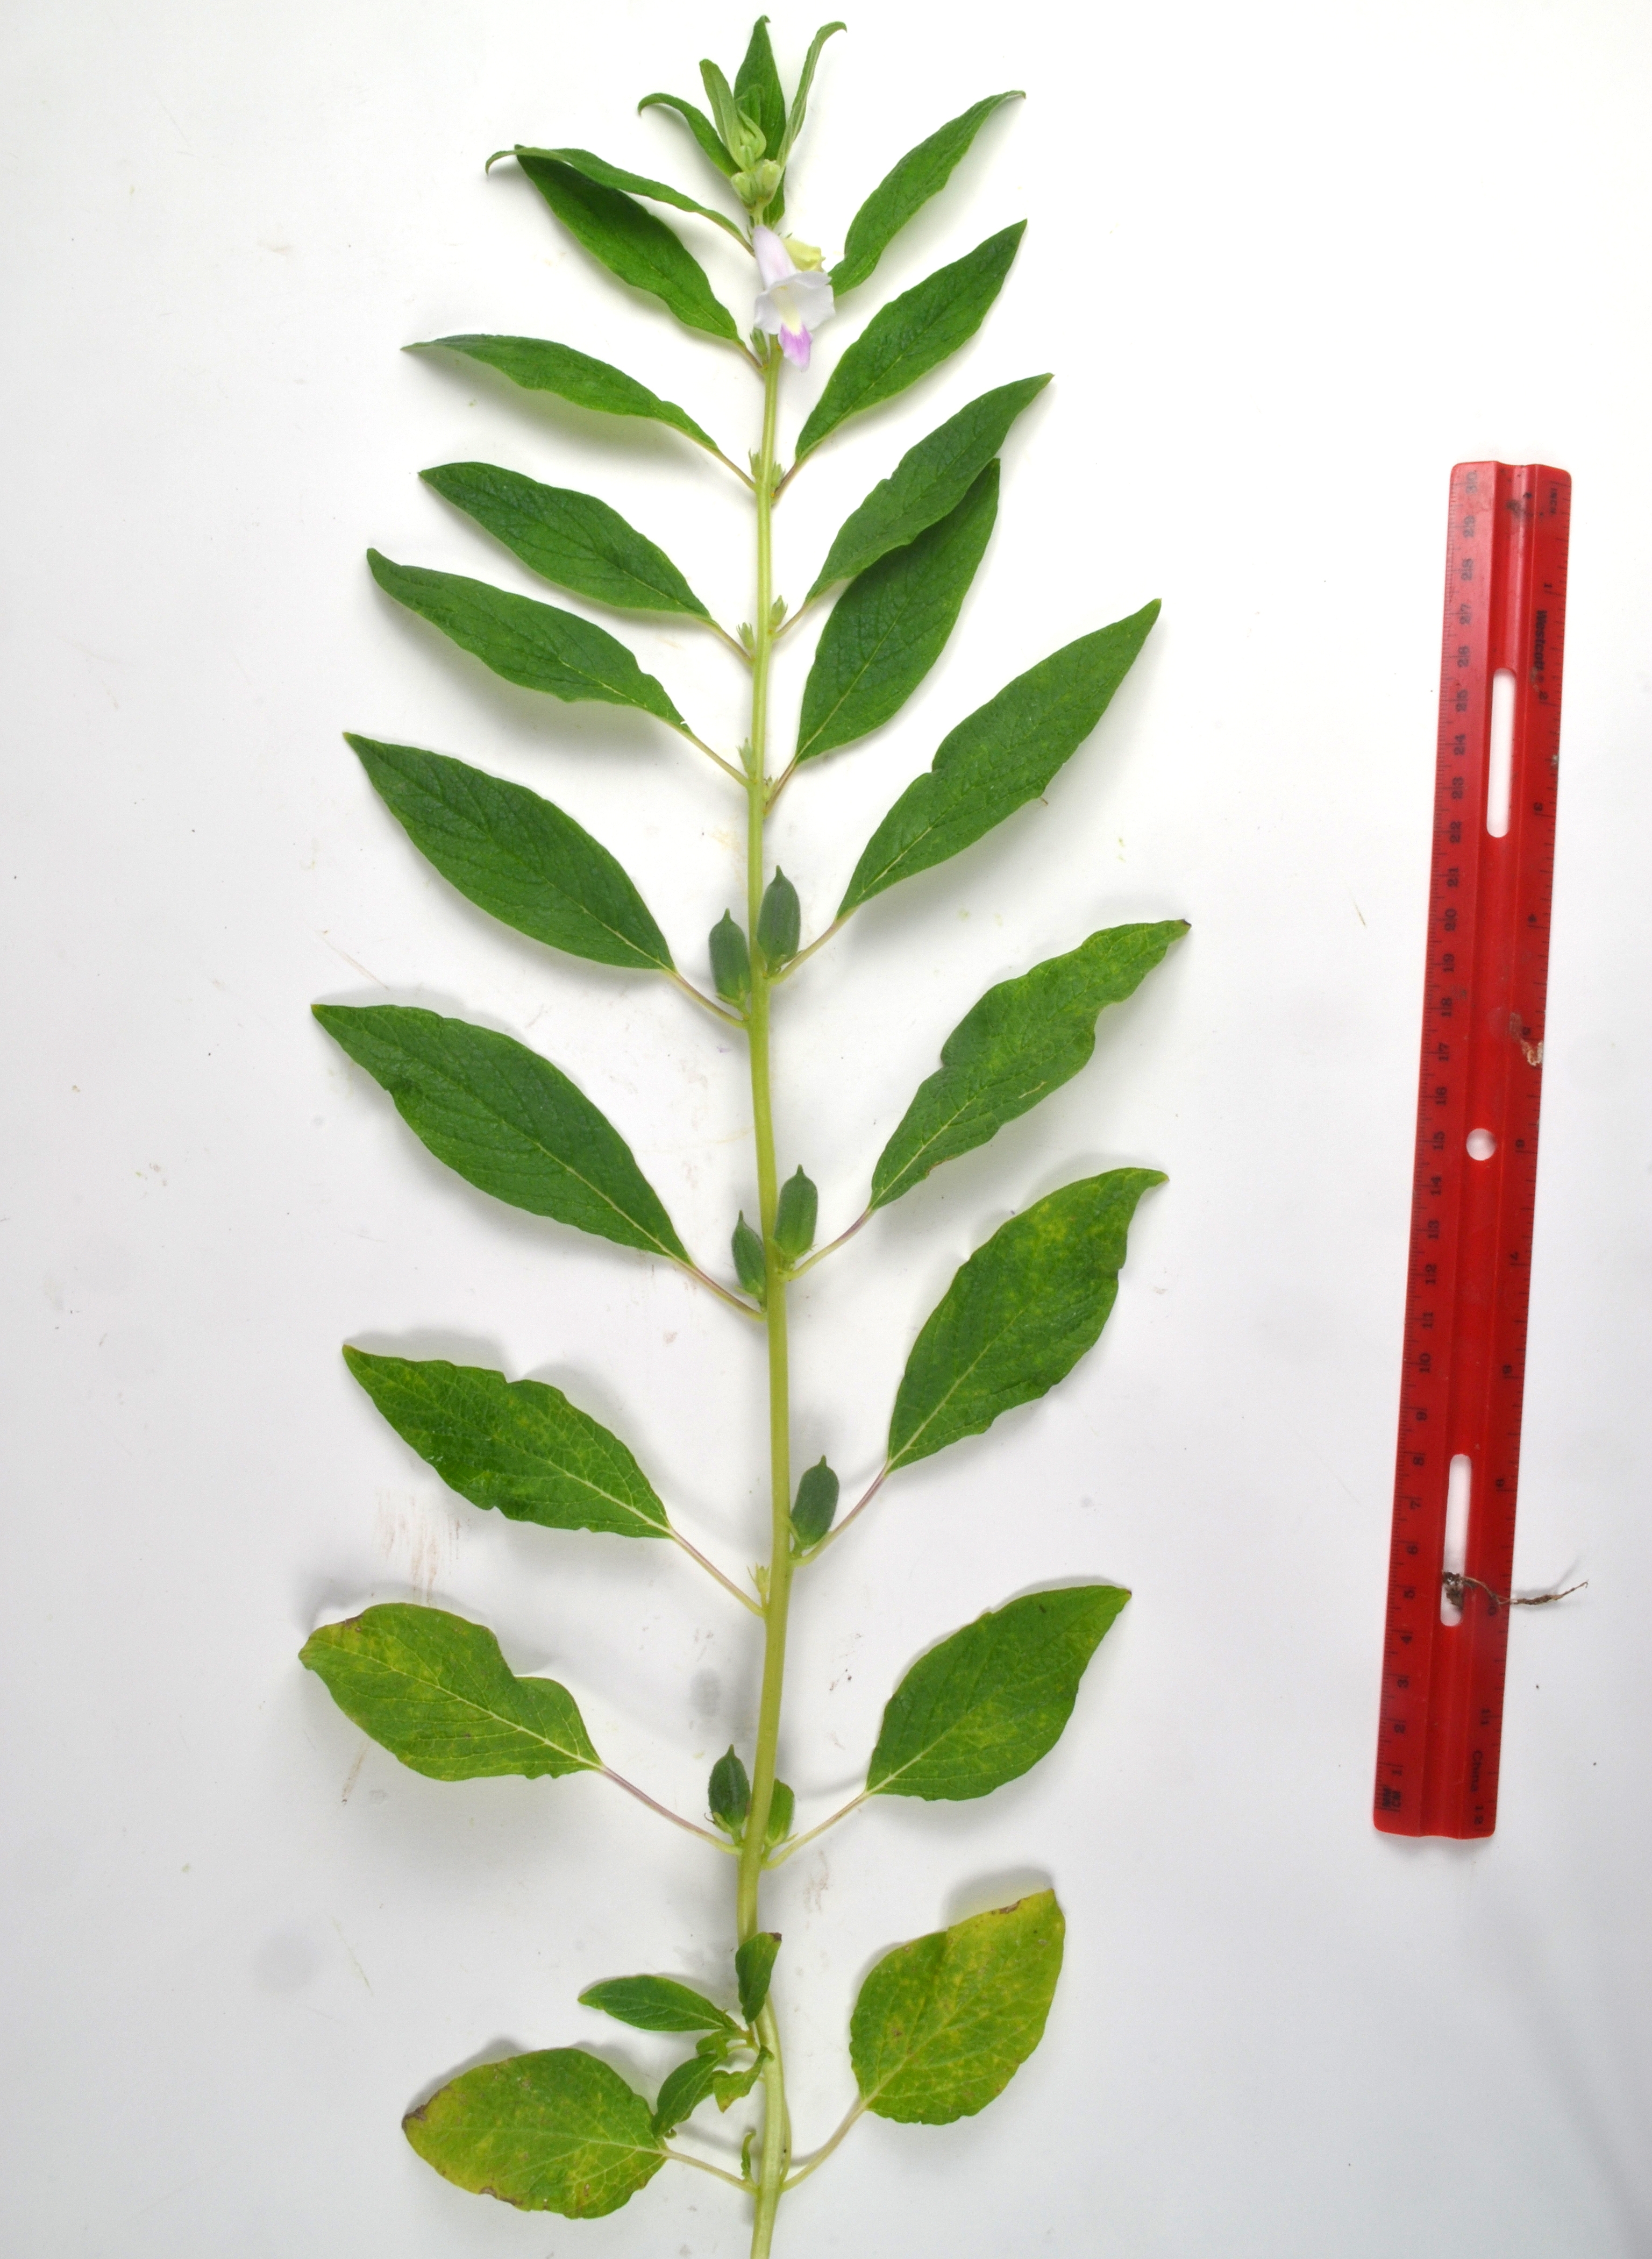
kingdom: Plantae
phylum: Tracheophyta
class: Magnoliopsida
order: Lamiales
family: Pedaliaceae
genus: Sesamum
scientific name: Sesamum indicum
